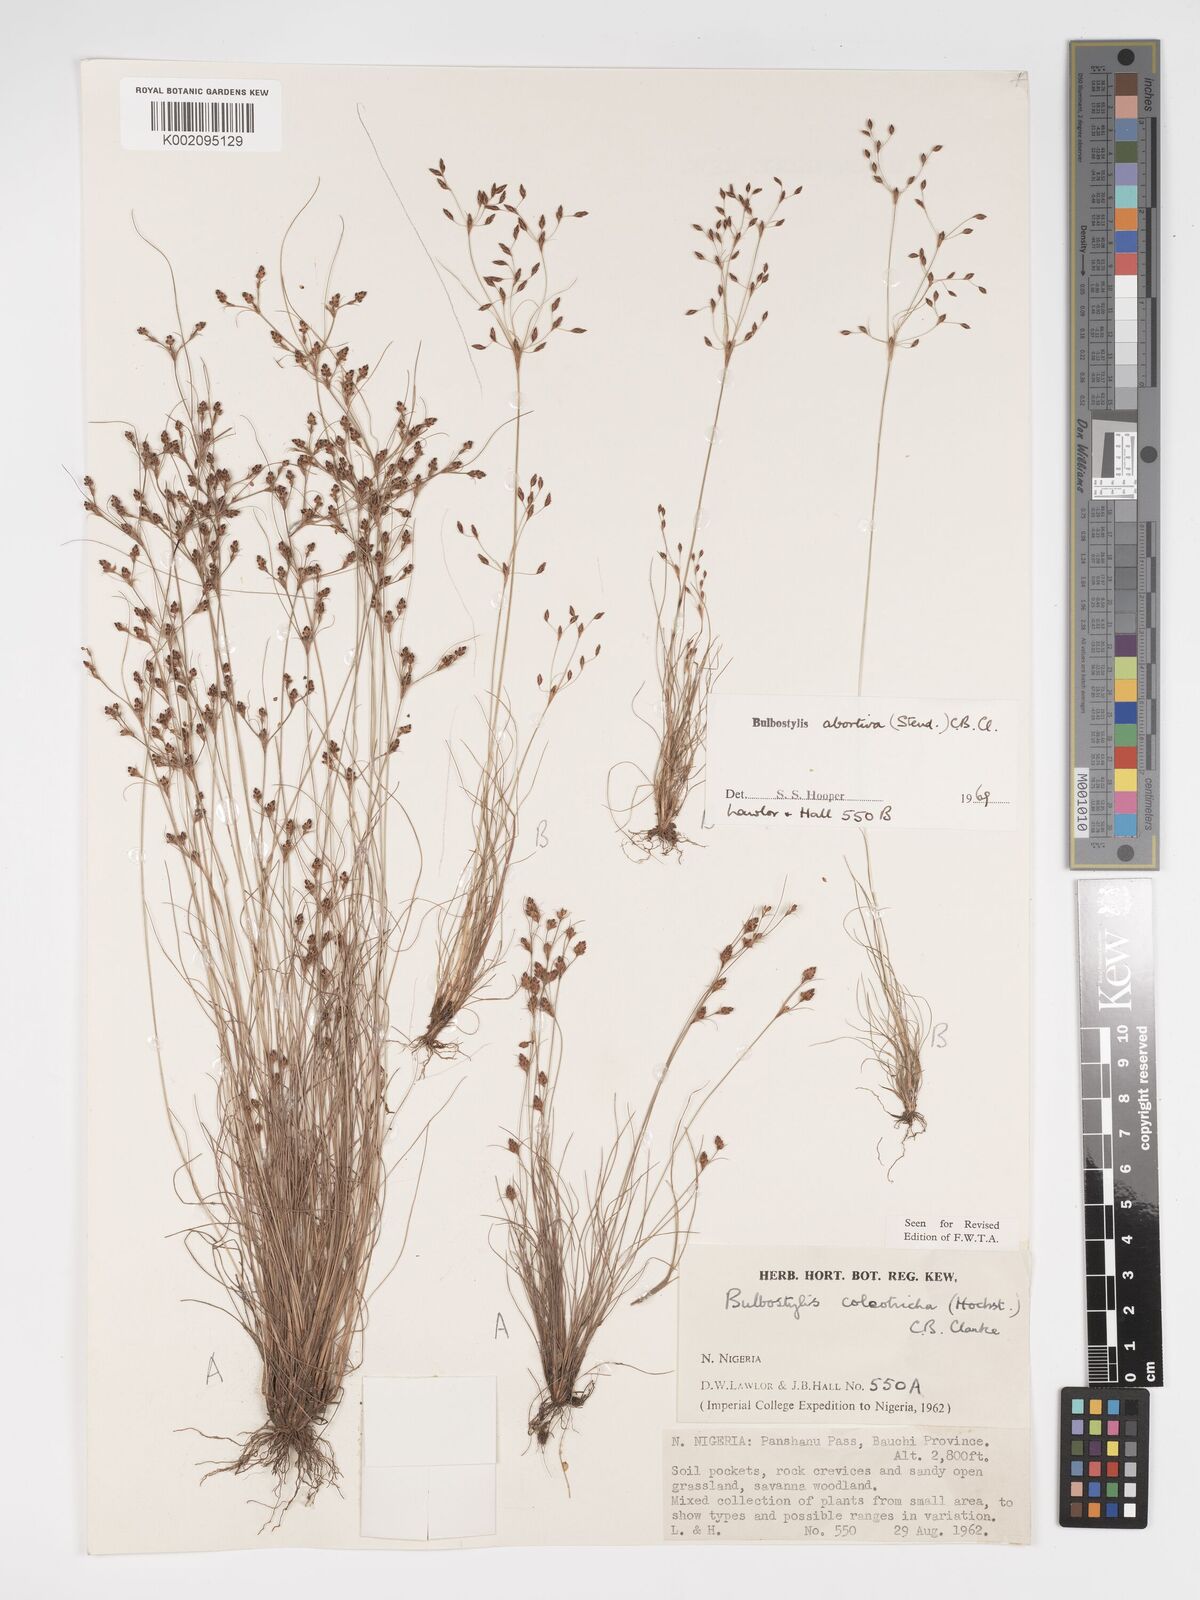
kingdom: Plantae
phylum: Tracheophyta
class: Liliopsida
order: Poales
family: Cyperaceae
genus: Bulbostylis
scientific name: Bulbostylis coleotricha
